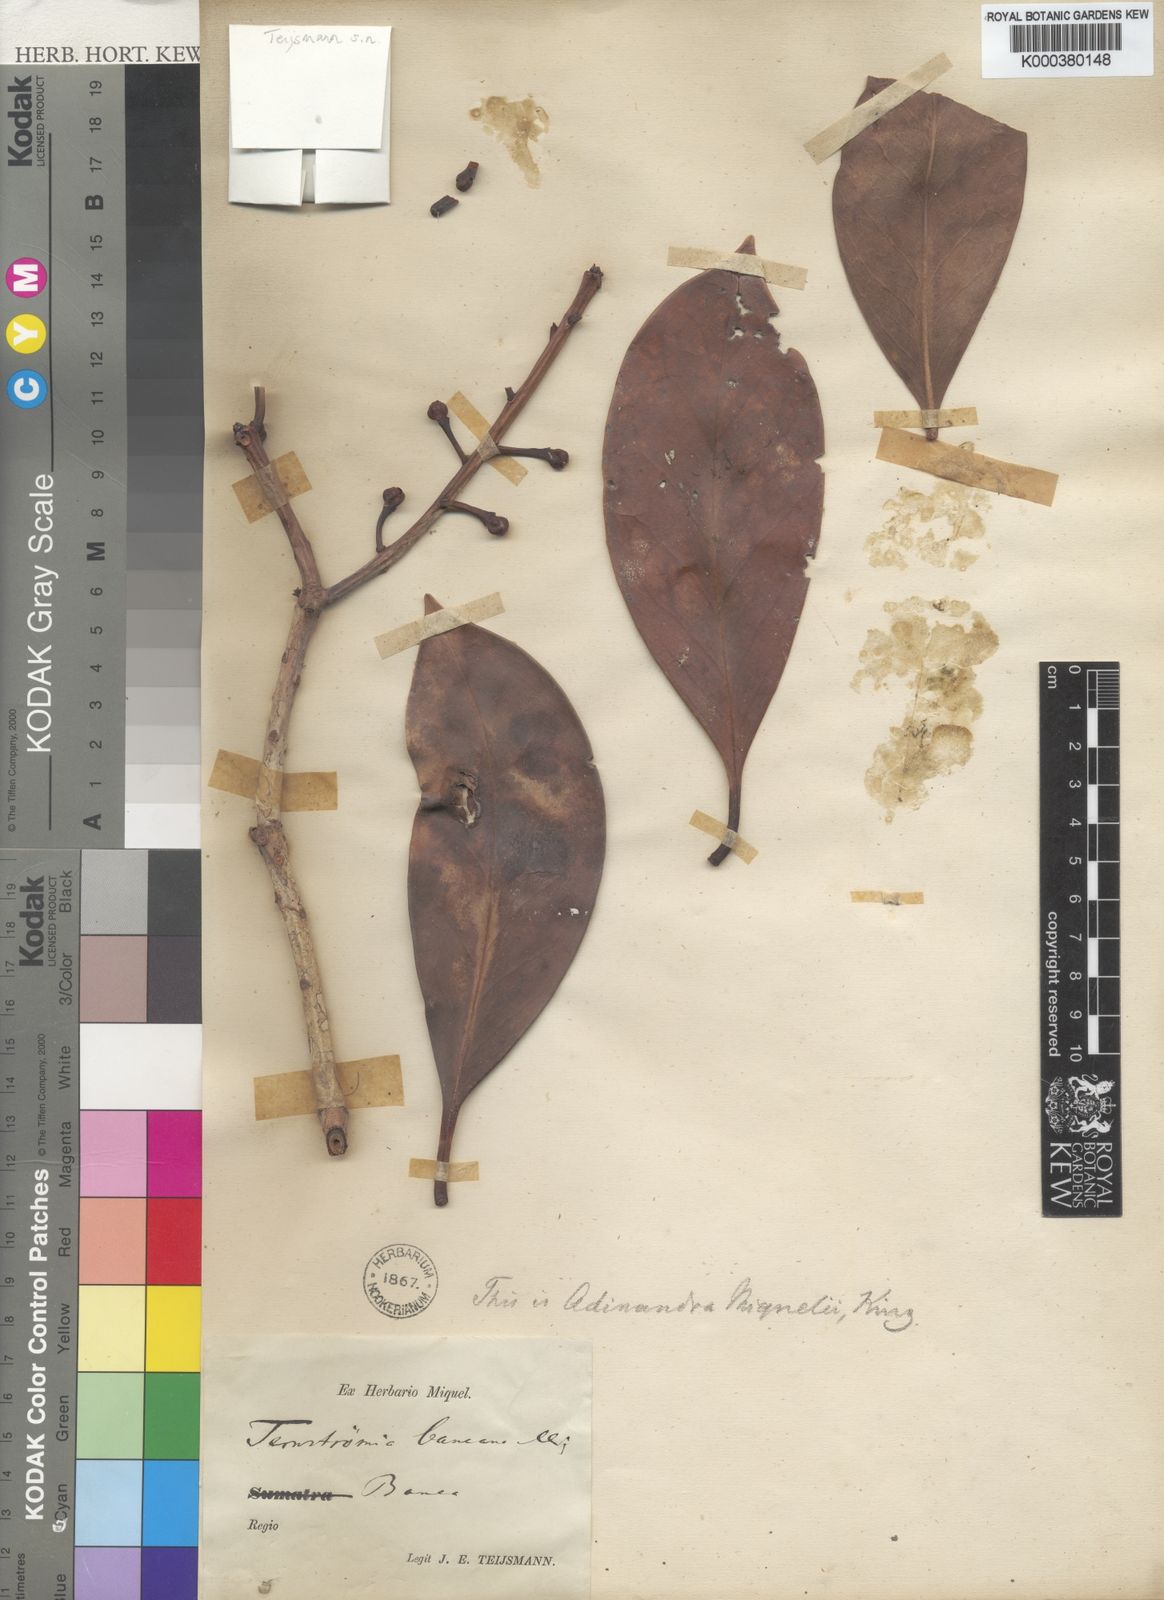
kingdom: Plantae
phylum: Tracheophyta
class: Magnoliopsida
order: Ericales
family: Pentaphylacaceae
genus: Ternstroemia
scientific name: Ternstroemia coriacea
